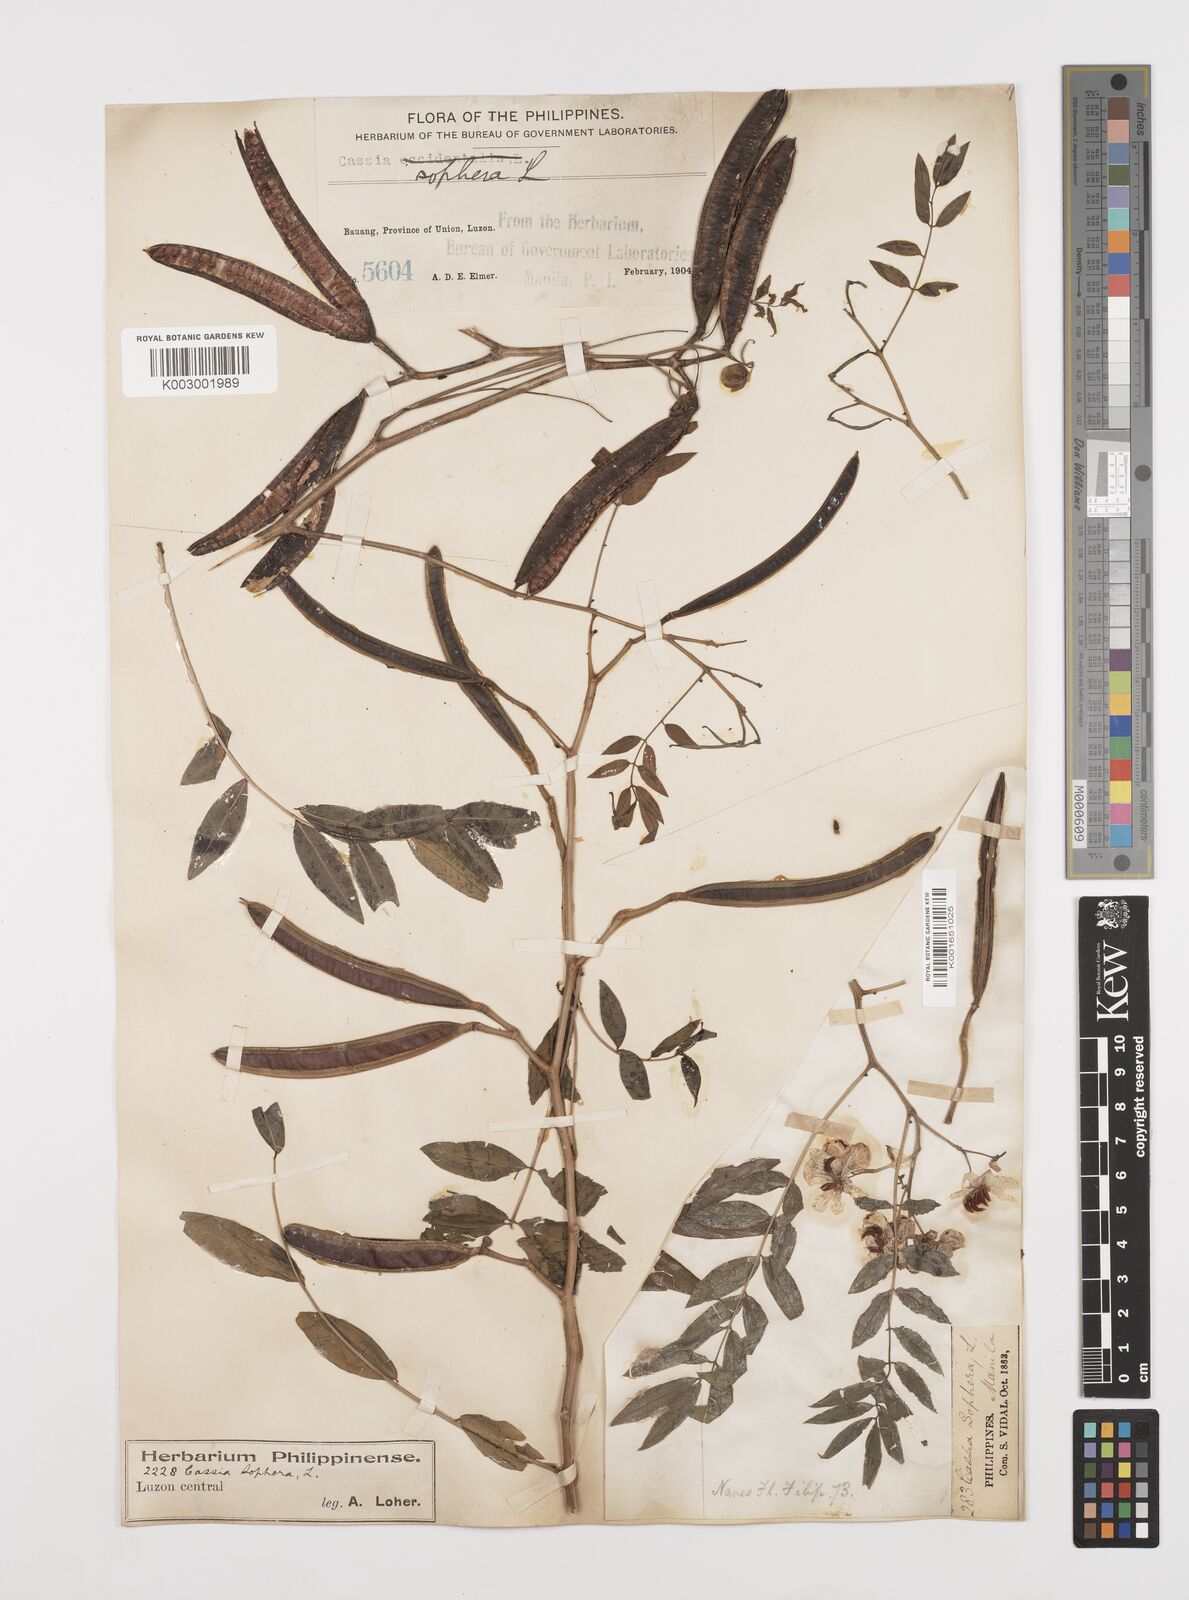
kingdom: Plantae
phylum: Tracheophyta
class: Magnoliopsida
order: Fabales
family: Fabaceae
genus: Senna
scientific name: Senna sophera
